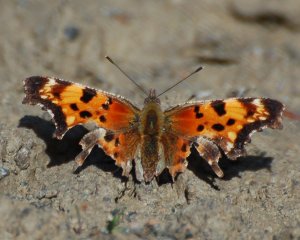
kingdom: Animalia
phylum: Arthropoda
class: Insecta
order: Lepidoptera
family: Nymphalidae
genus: Polygonia
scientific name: Polygonia faunus
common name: Green Comma
